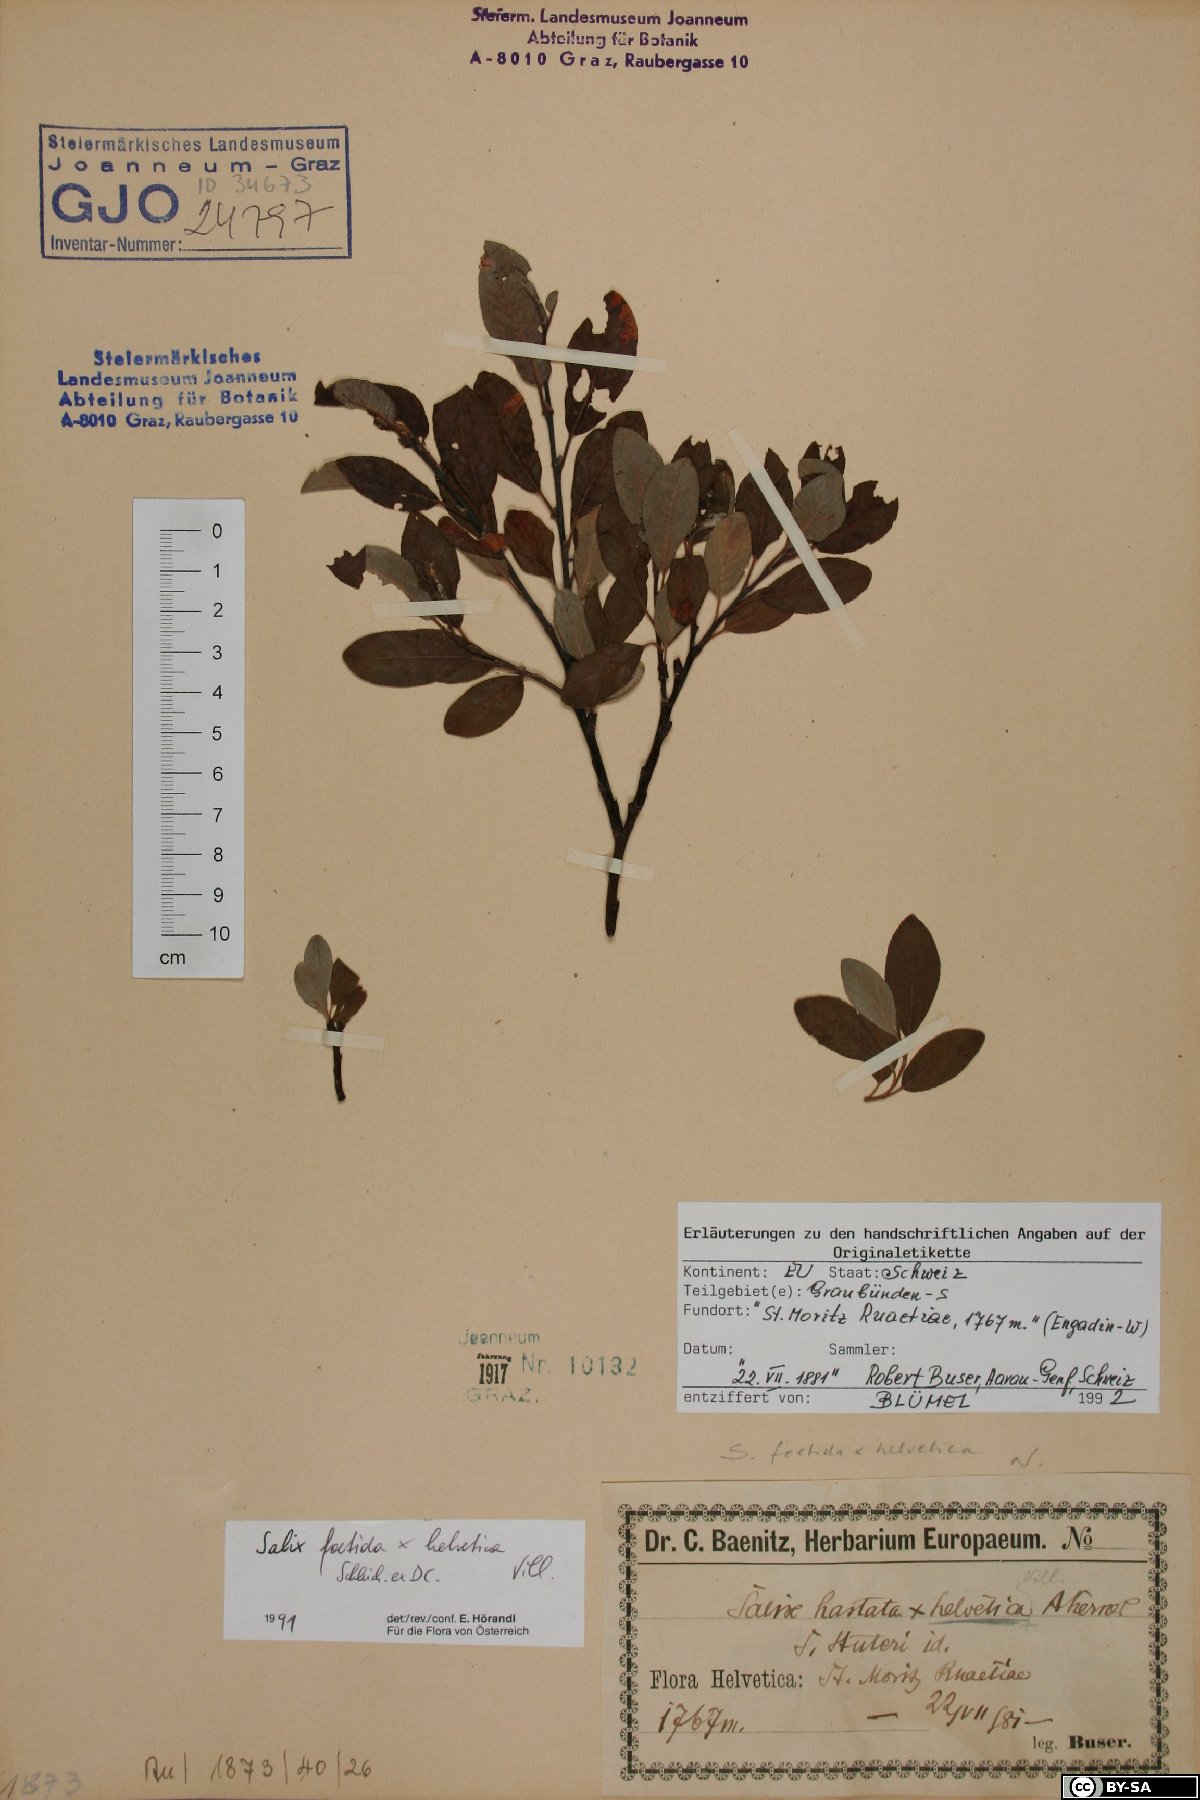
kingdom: Plantae
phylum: Tracheophyta
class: Magnoliopsida
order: Malpighiales
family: Salicaceae
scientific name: Salicaceae
